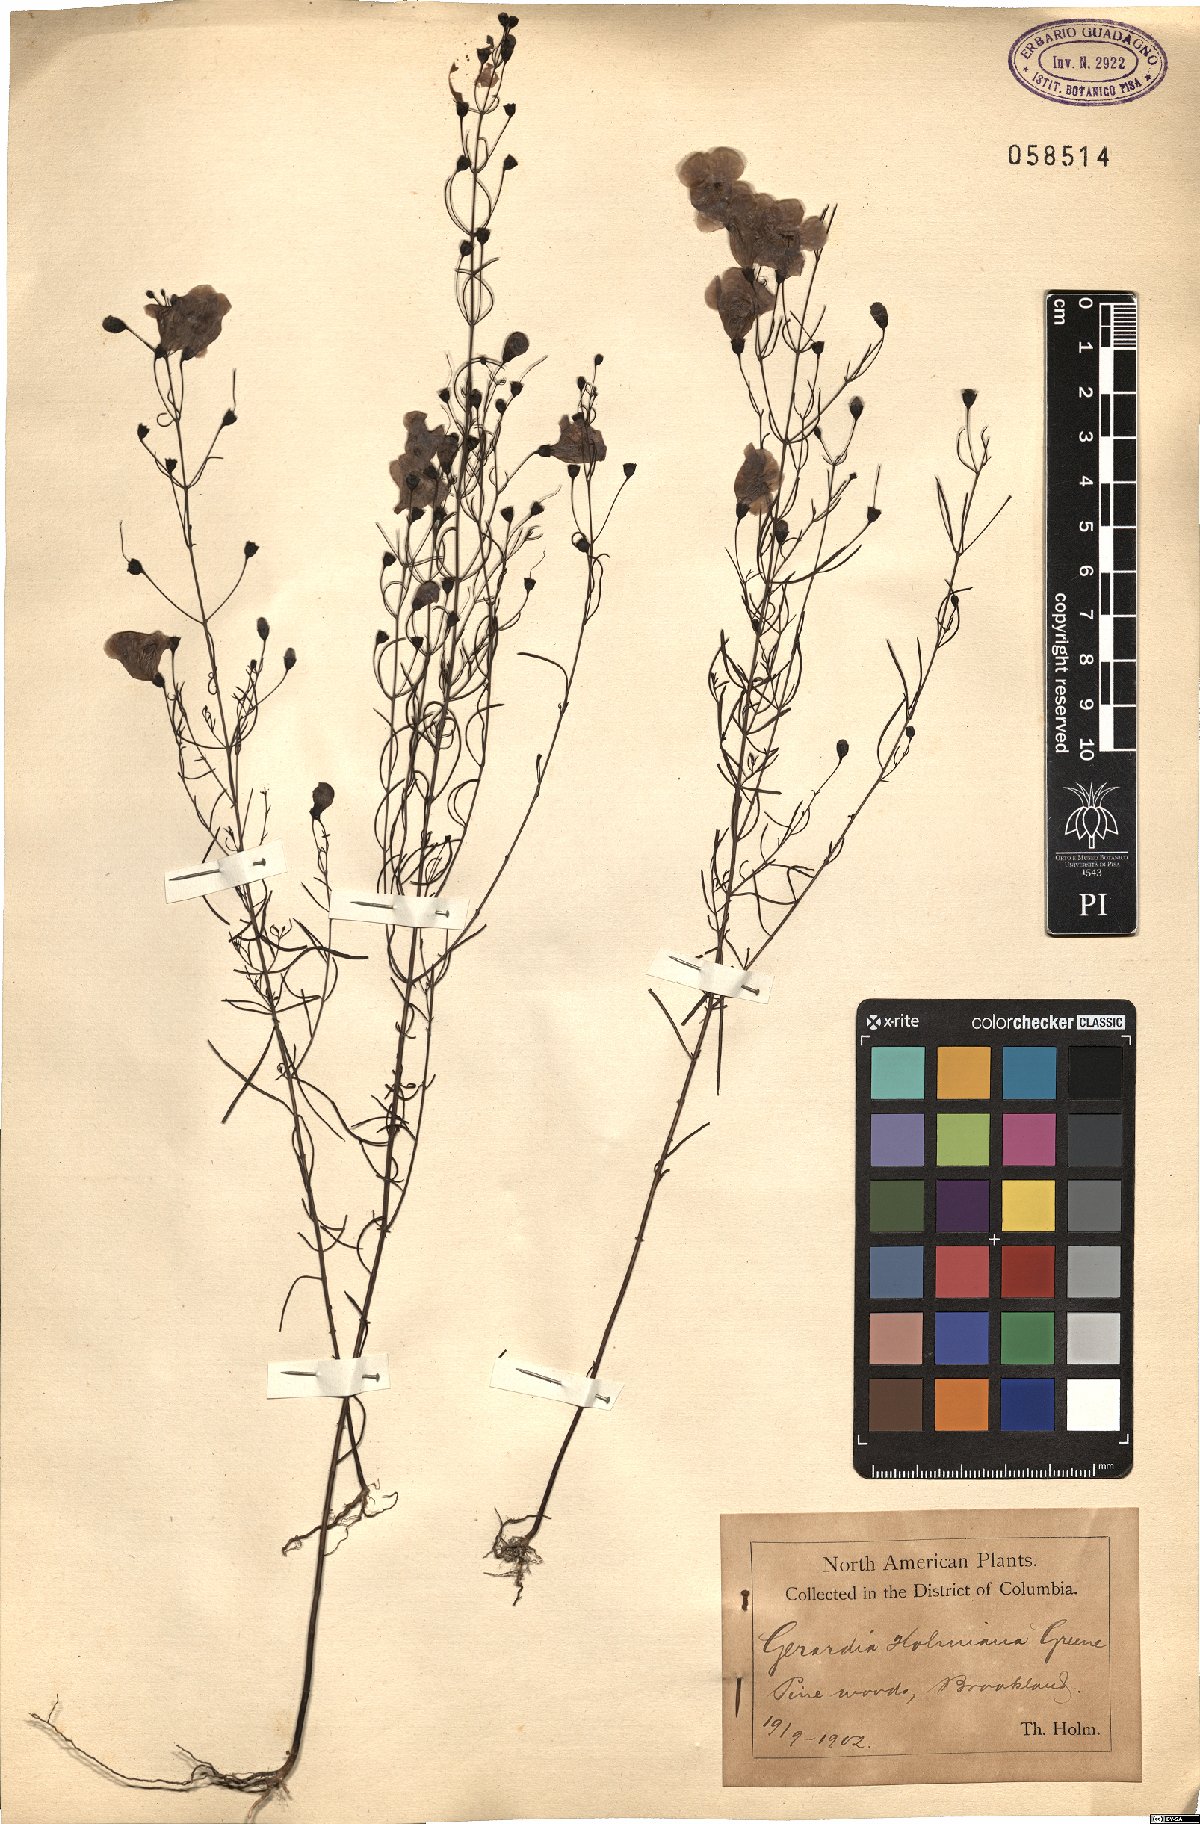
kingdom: Plantae
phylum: Tracheophyta
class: Magnoliopsida
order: Lamiales
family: Orobanchaceae
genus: Agalinis
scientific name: Agalinis setacea
